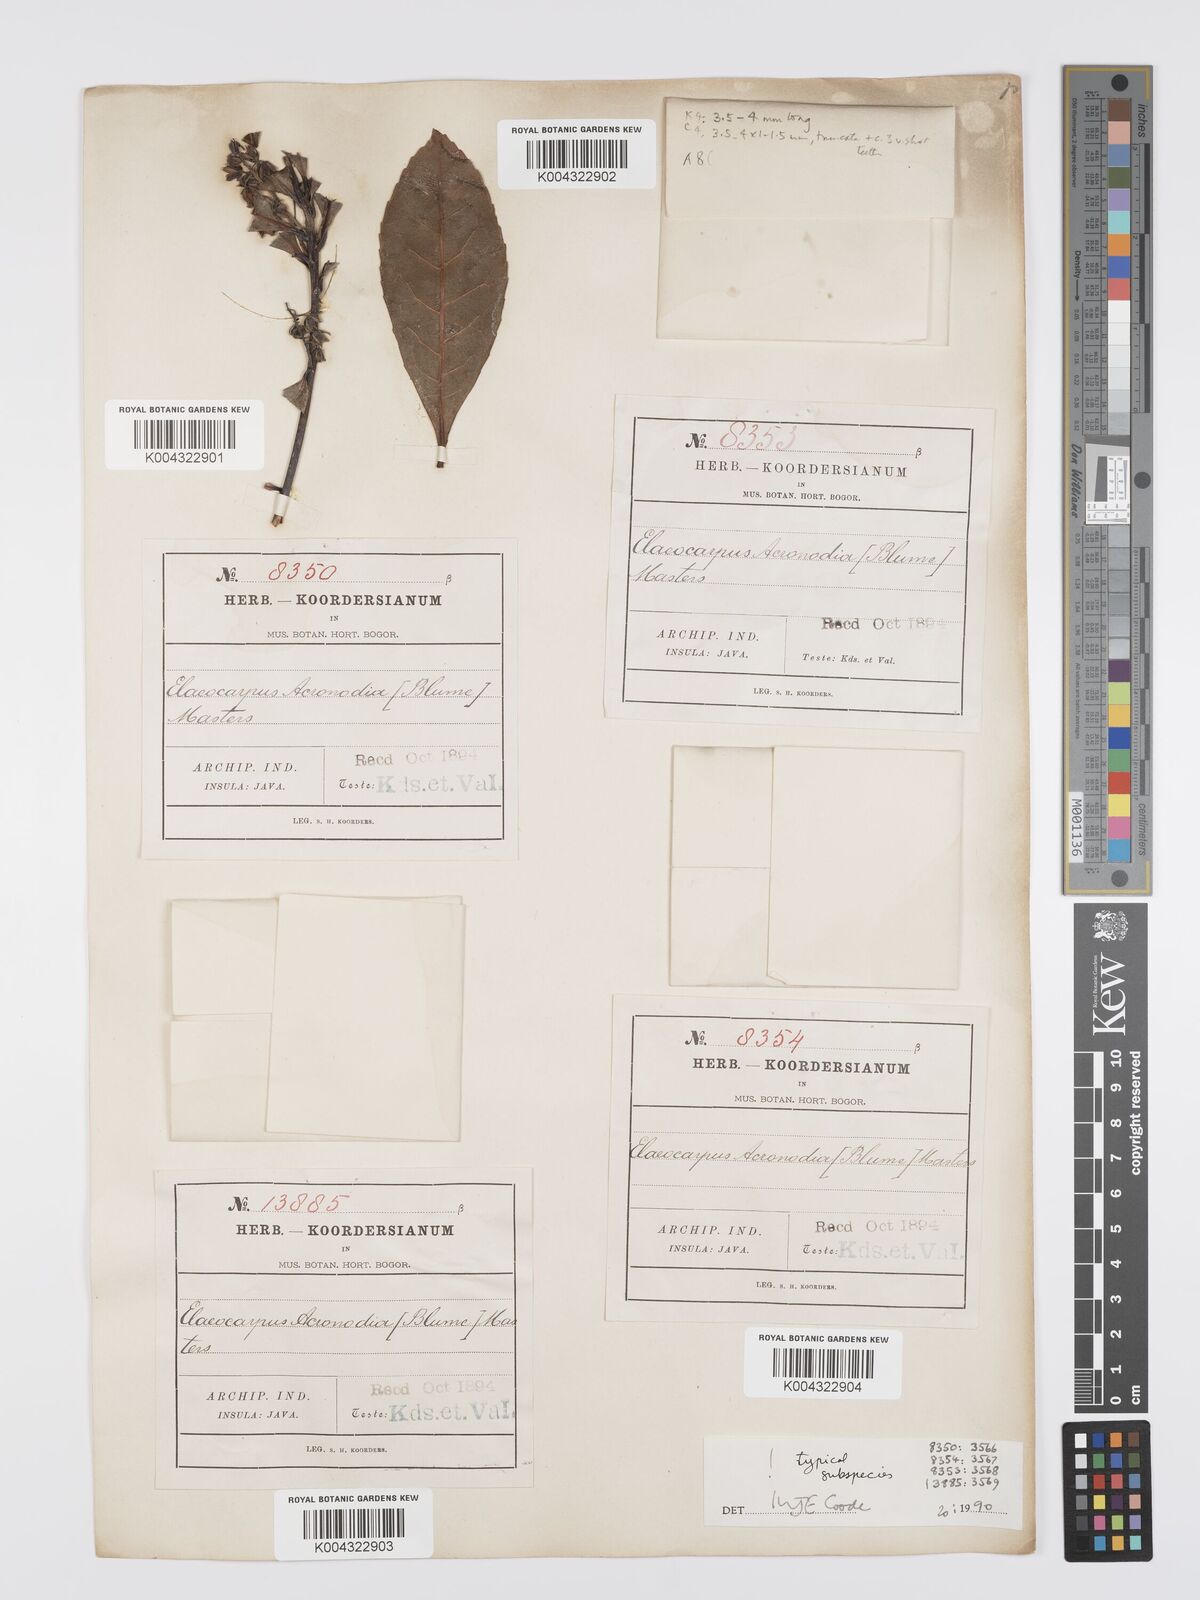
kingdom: Plantae
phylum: Tracheophyta
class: Magnoliopsida
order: Oxalidales
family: Elaeocarpaceae
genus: Elaeocarpus
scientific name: Elaeocarpus acronodia
